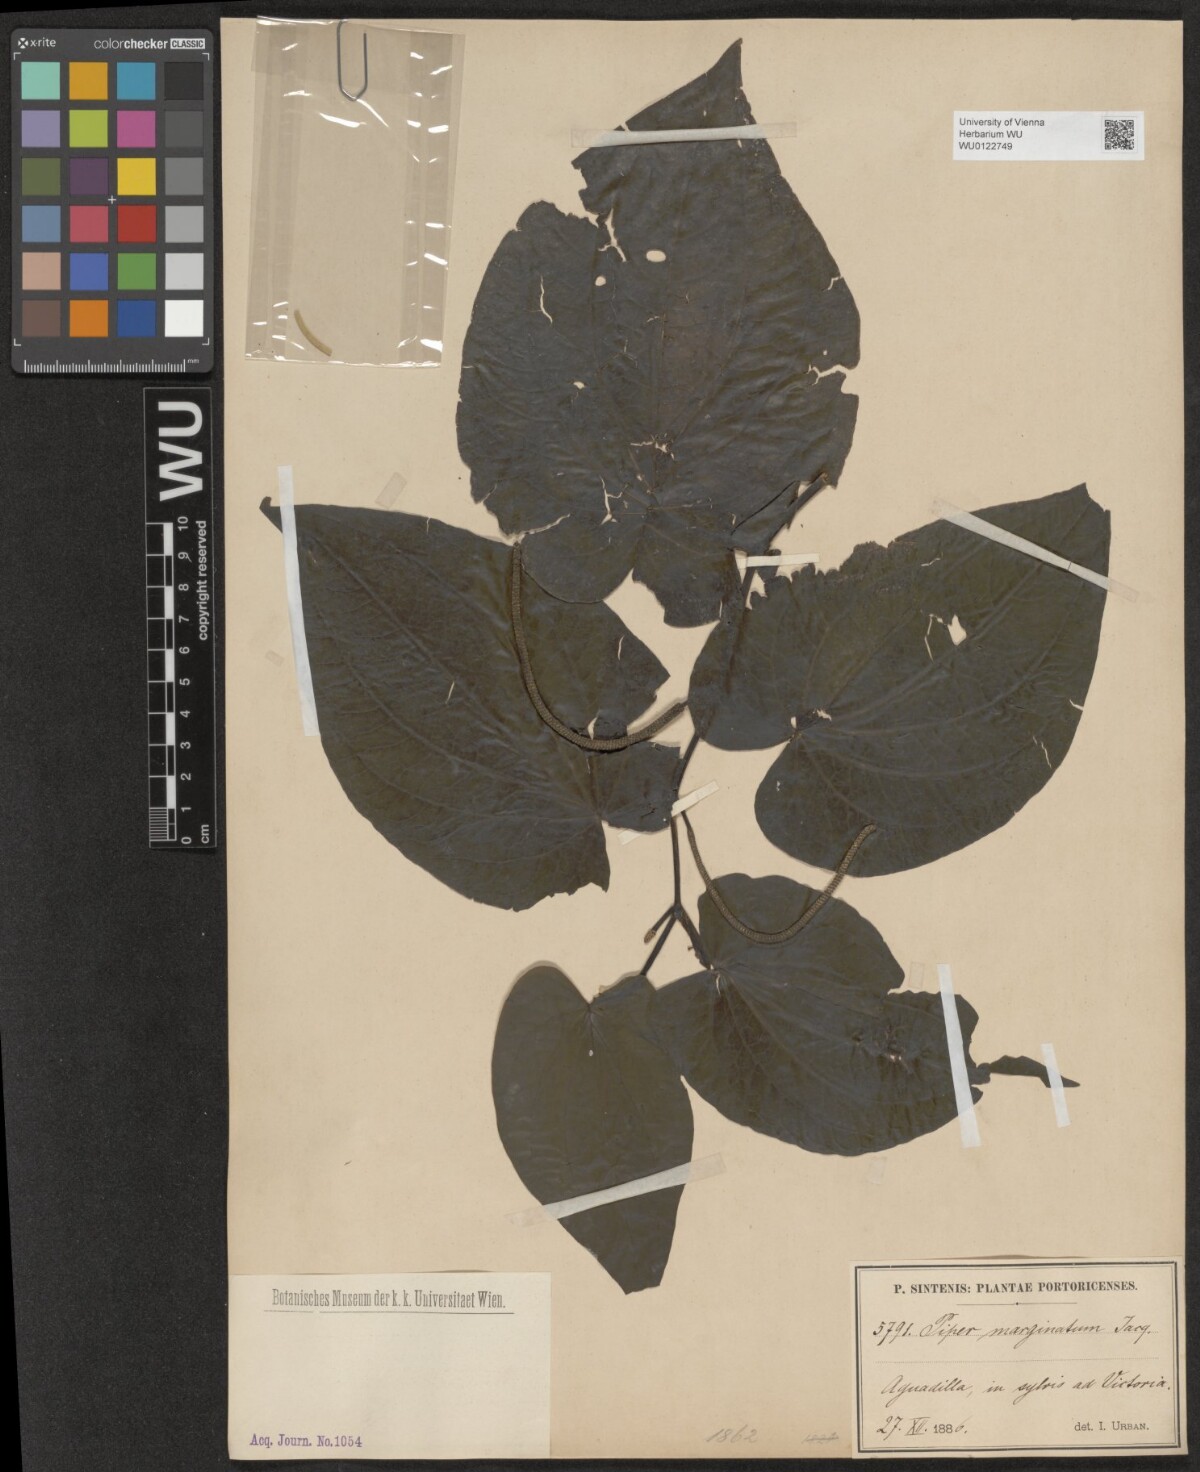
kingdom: Plantae
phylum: Tracheophyta
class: Magnoliopsida
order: Piperales
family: Piperaceae
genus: Piper
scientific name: Piper marginatum
